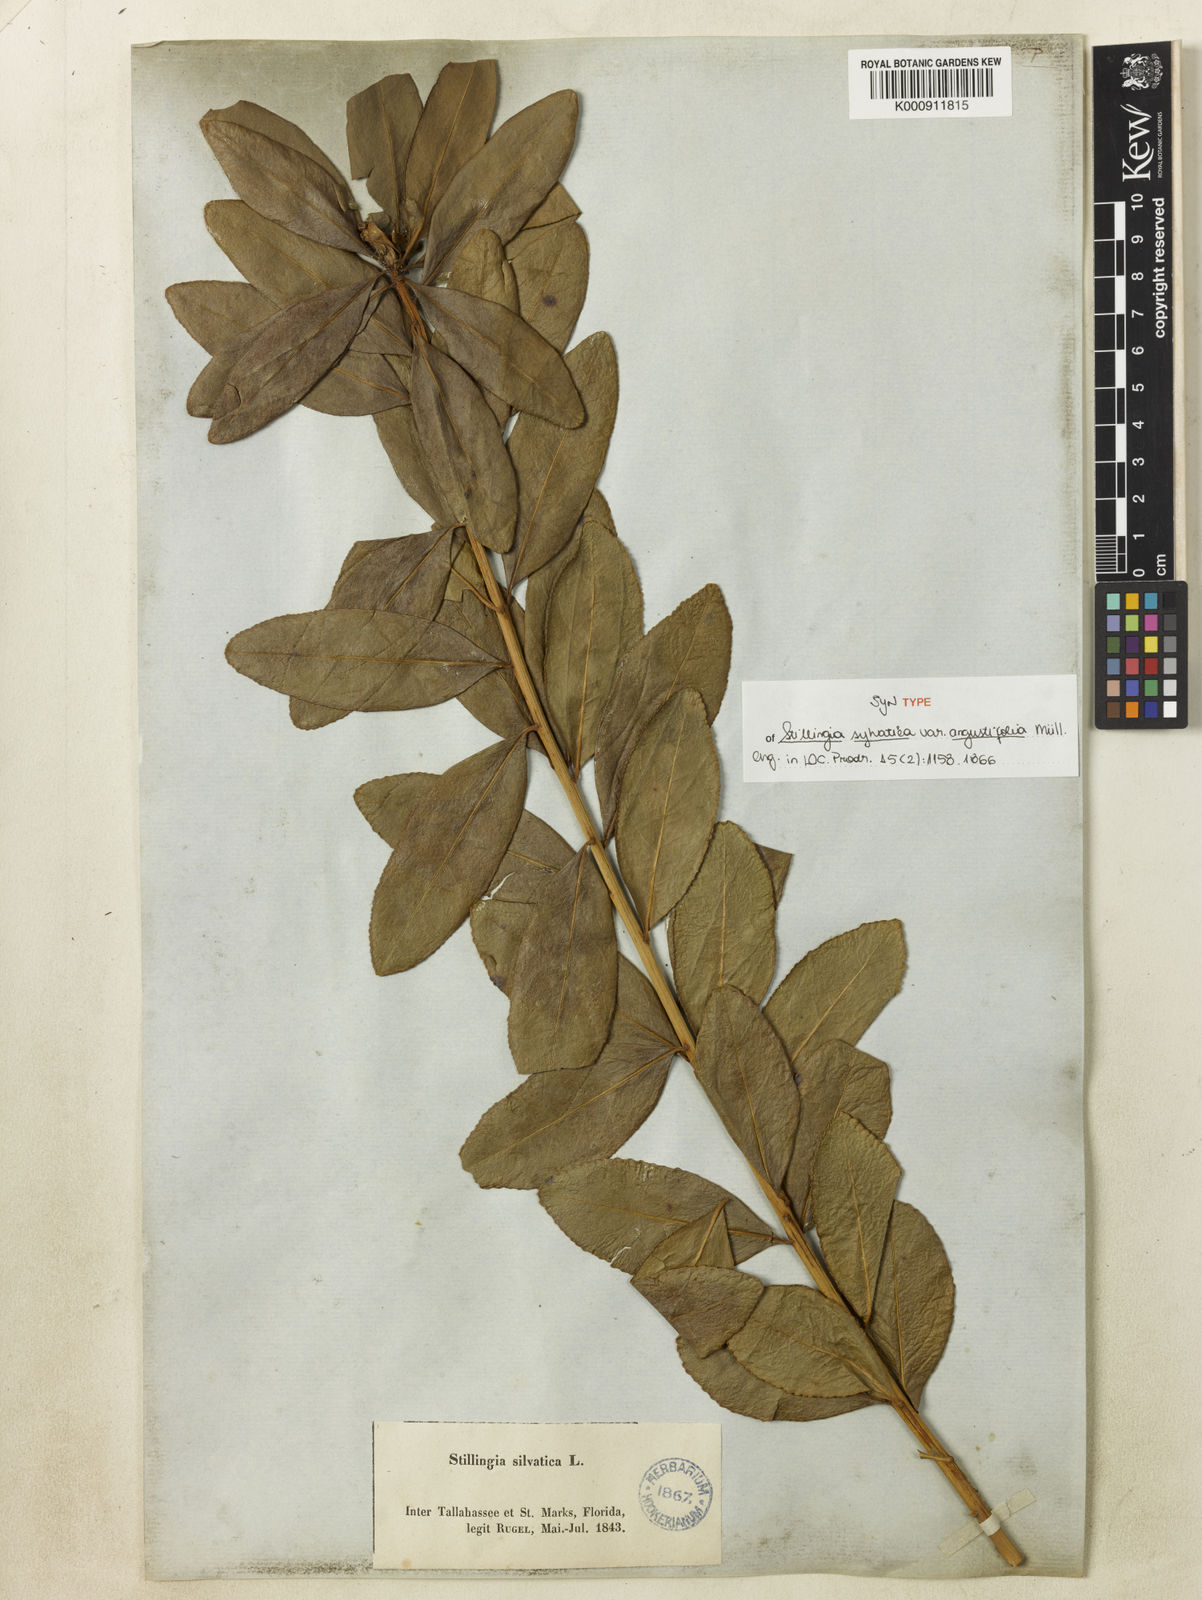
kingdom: Plantae
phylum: Tracheophyta
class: Magnoliopsida
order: Malpighiales
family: Euphorbiaceae
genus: Stillingia
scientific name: Stillingia sylvatica
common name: Queen's-delight
